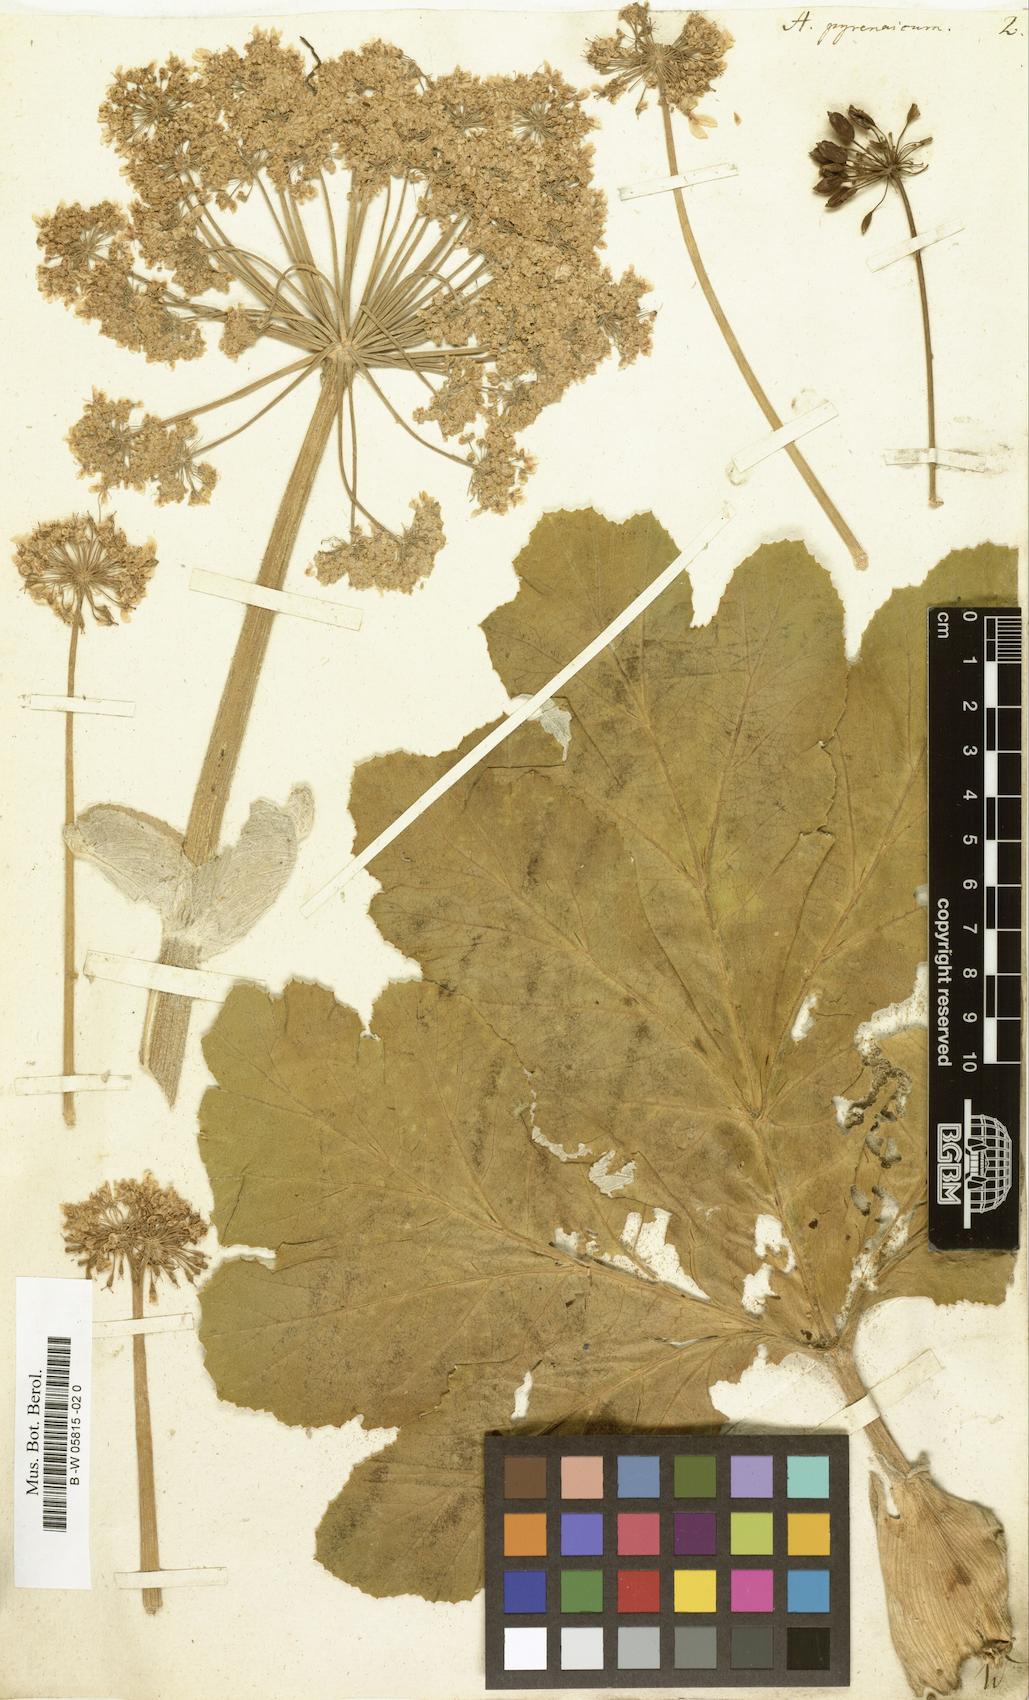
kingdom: Plantae
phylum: Tracheophyta
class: Magnoliopsida
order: Apiales
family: Apiaceae
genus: Heracleum
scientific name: Heracleum pyrenaicum
